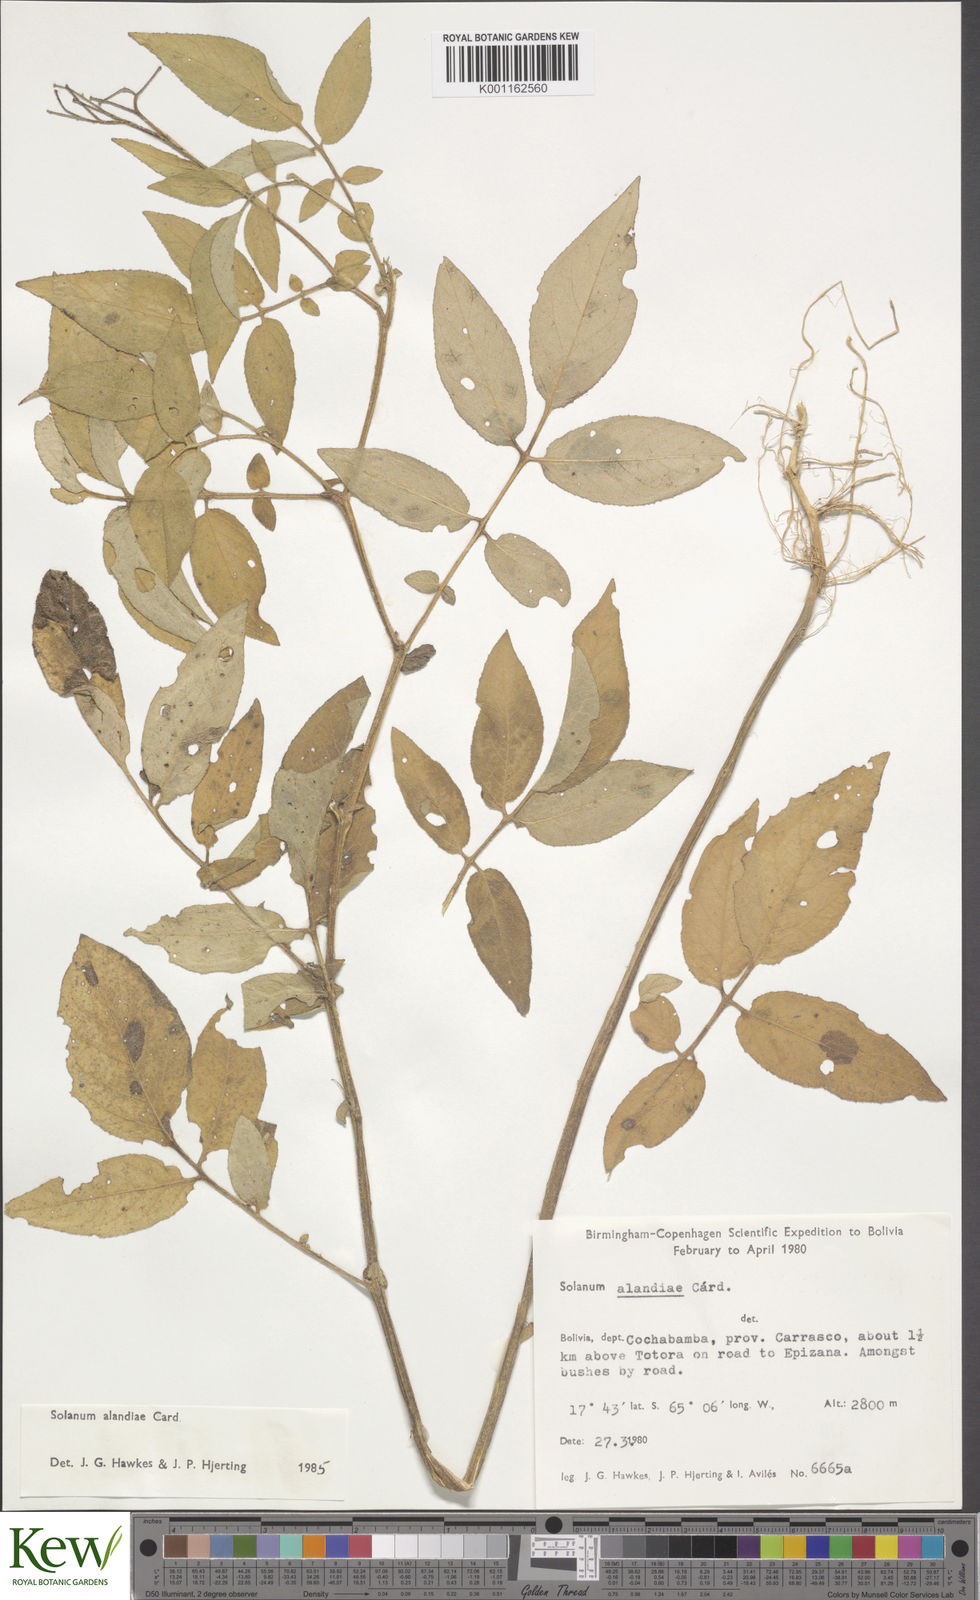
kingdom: Plantae
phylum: Tracheophyta
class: Magnoliopsida
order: Solanales
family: Solanaceae
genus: Solanum
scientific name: Solanum
